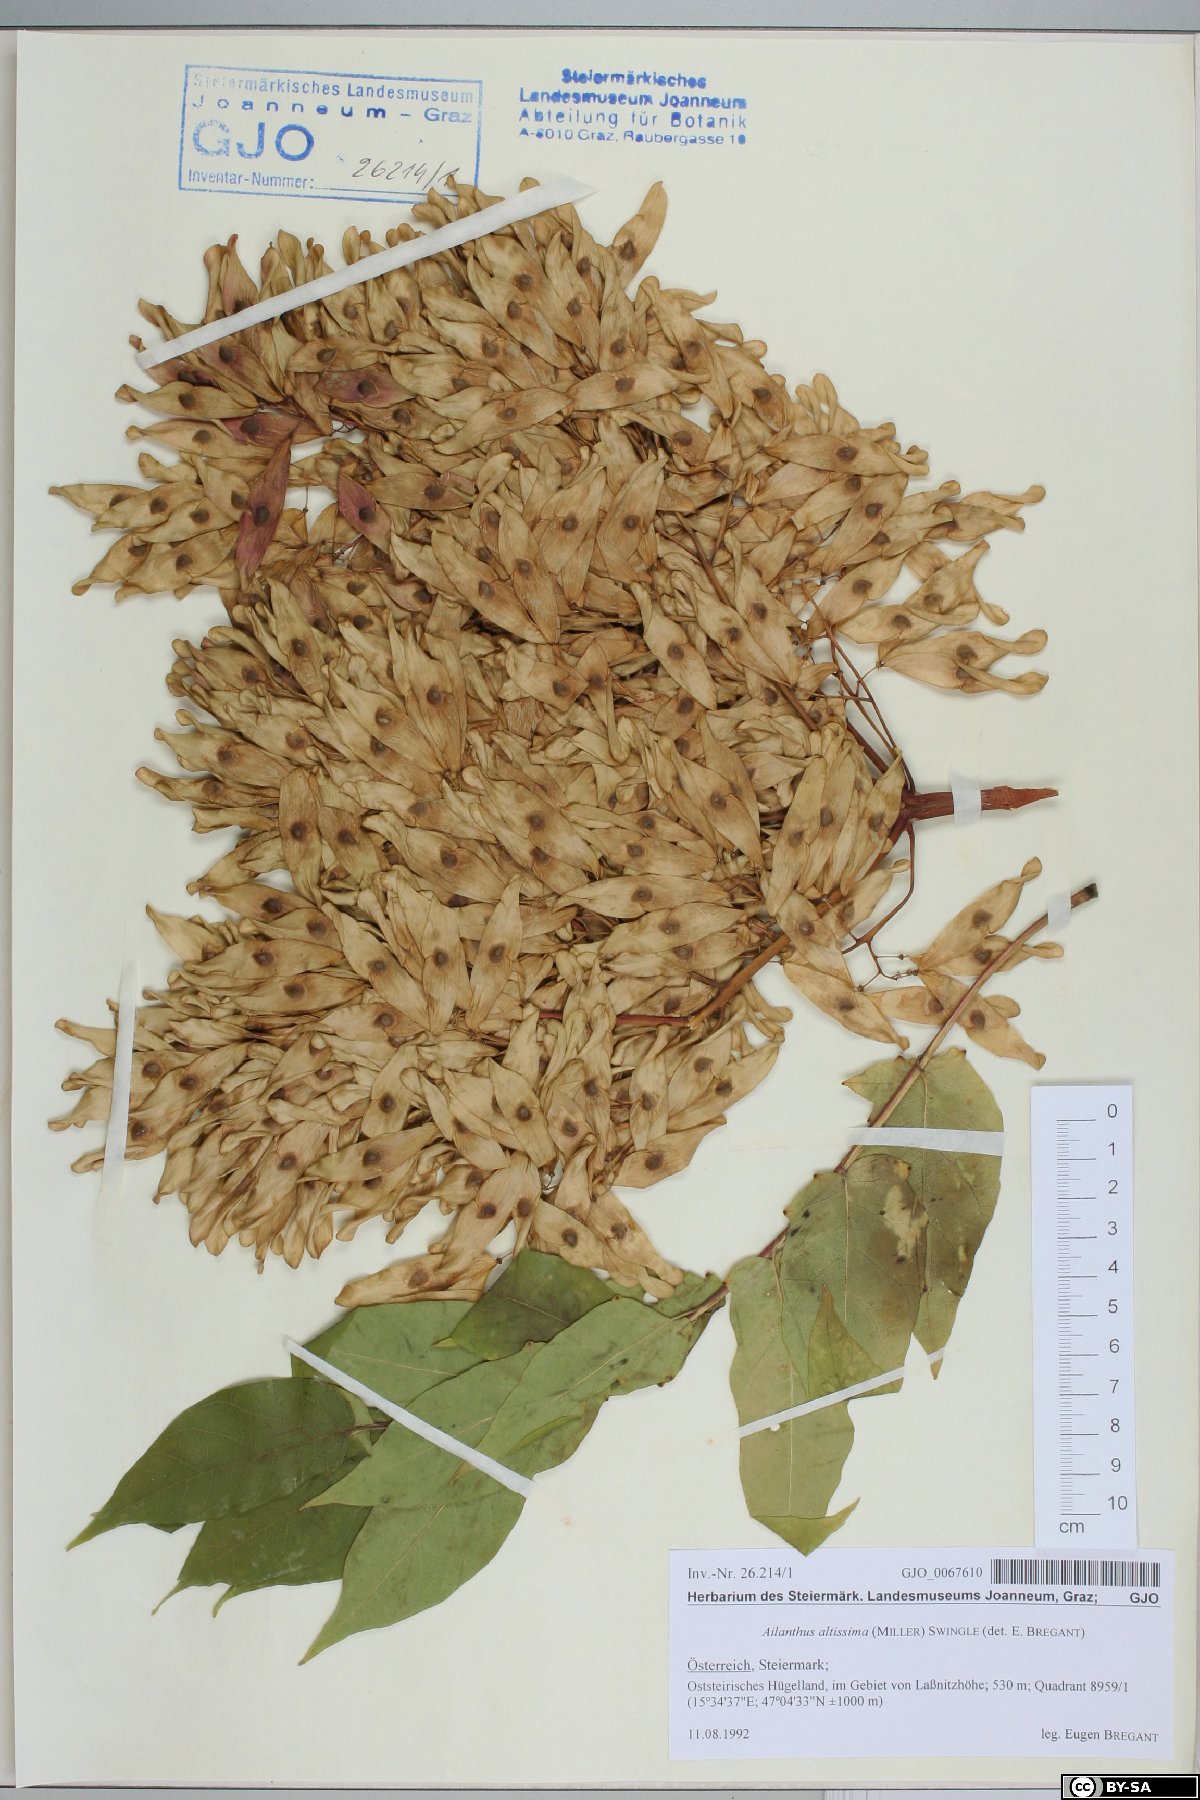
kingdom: Plantae
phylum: Tracheophyta
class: Magnoliopsida
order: Sapindales
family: Simaroubaceae
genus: Ailanthus
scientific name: Ailanthus altissima
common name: Tree-of-heaven
